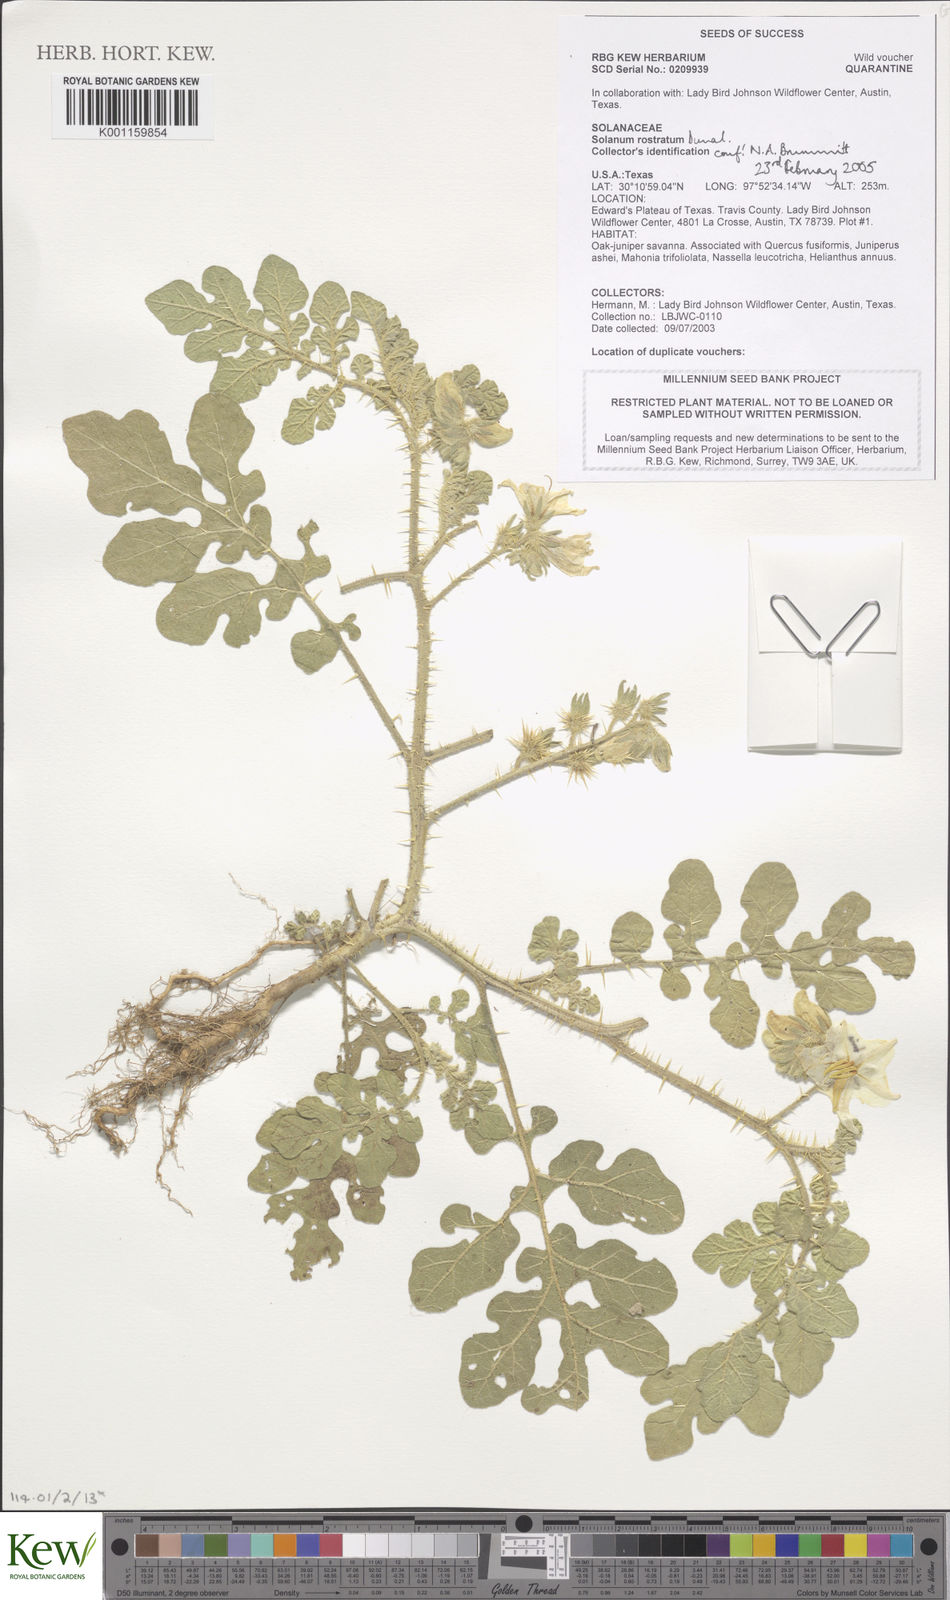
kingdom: Plantae
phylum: Tracheophyta
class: Magnoliopsida
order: Solanales
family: Solanaceae
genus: Solanum
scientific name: Solanum angustifolium
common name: Buffalobur nightshade
